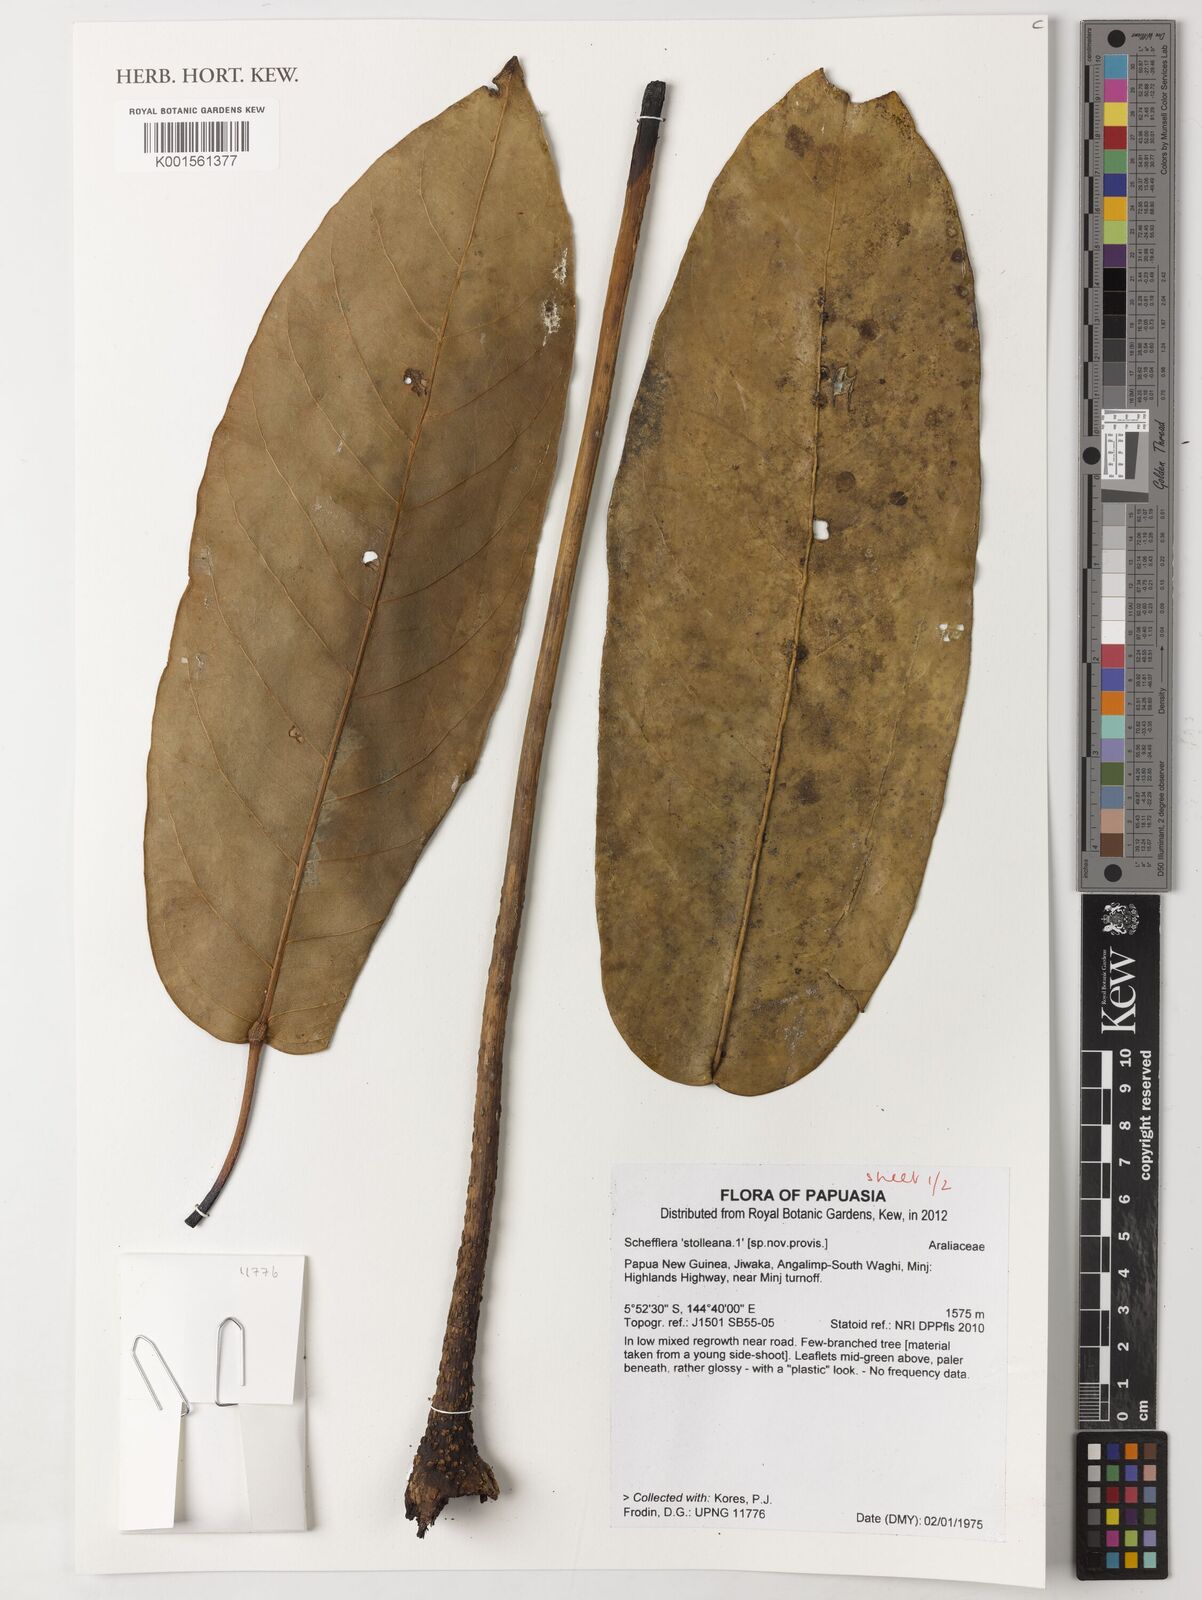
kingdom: Plantae
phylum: Tracheophyta
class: Magnoliopsida
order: Apiales
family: Araliaceae
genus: Schefflera
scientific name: Schefflera
